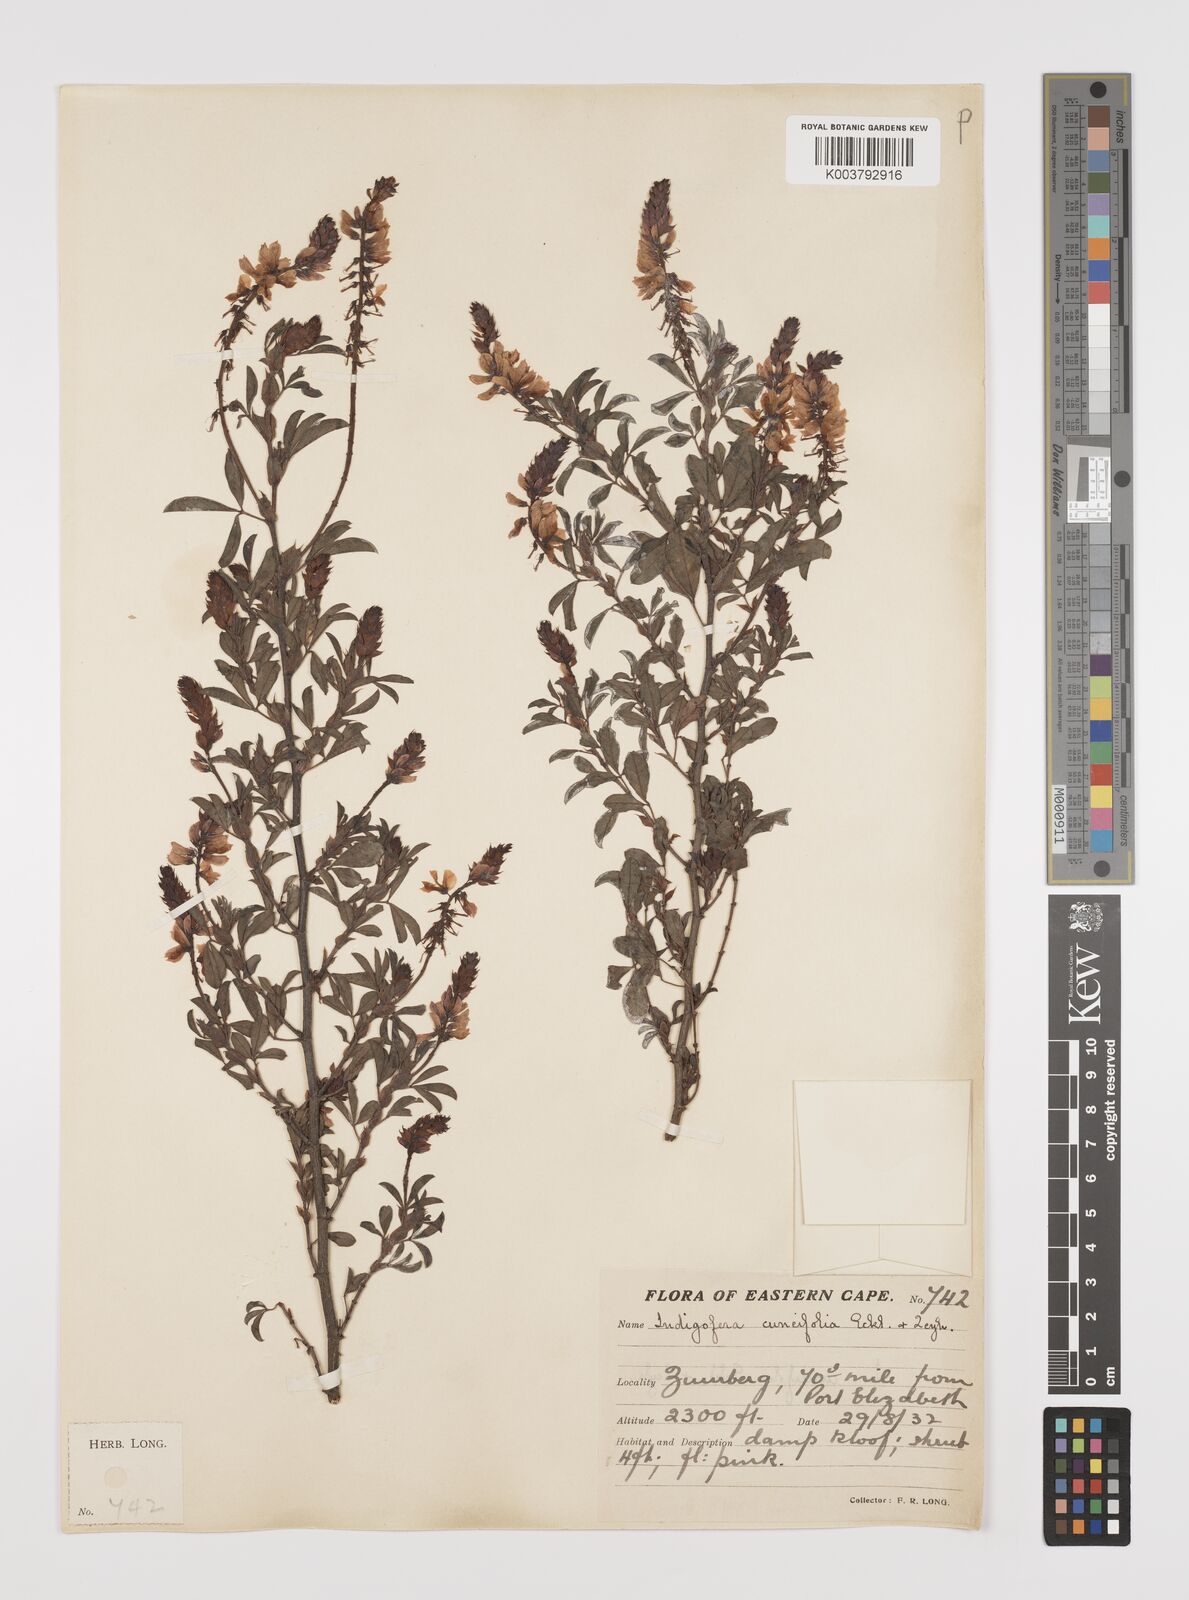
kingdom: Plantae
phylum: Tracheophyta
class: Magnoliopsida
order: Fabales
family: Fabaceae
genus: Indigofera
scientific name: Indigofera cuneifolia
